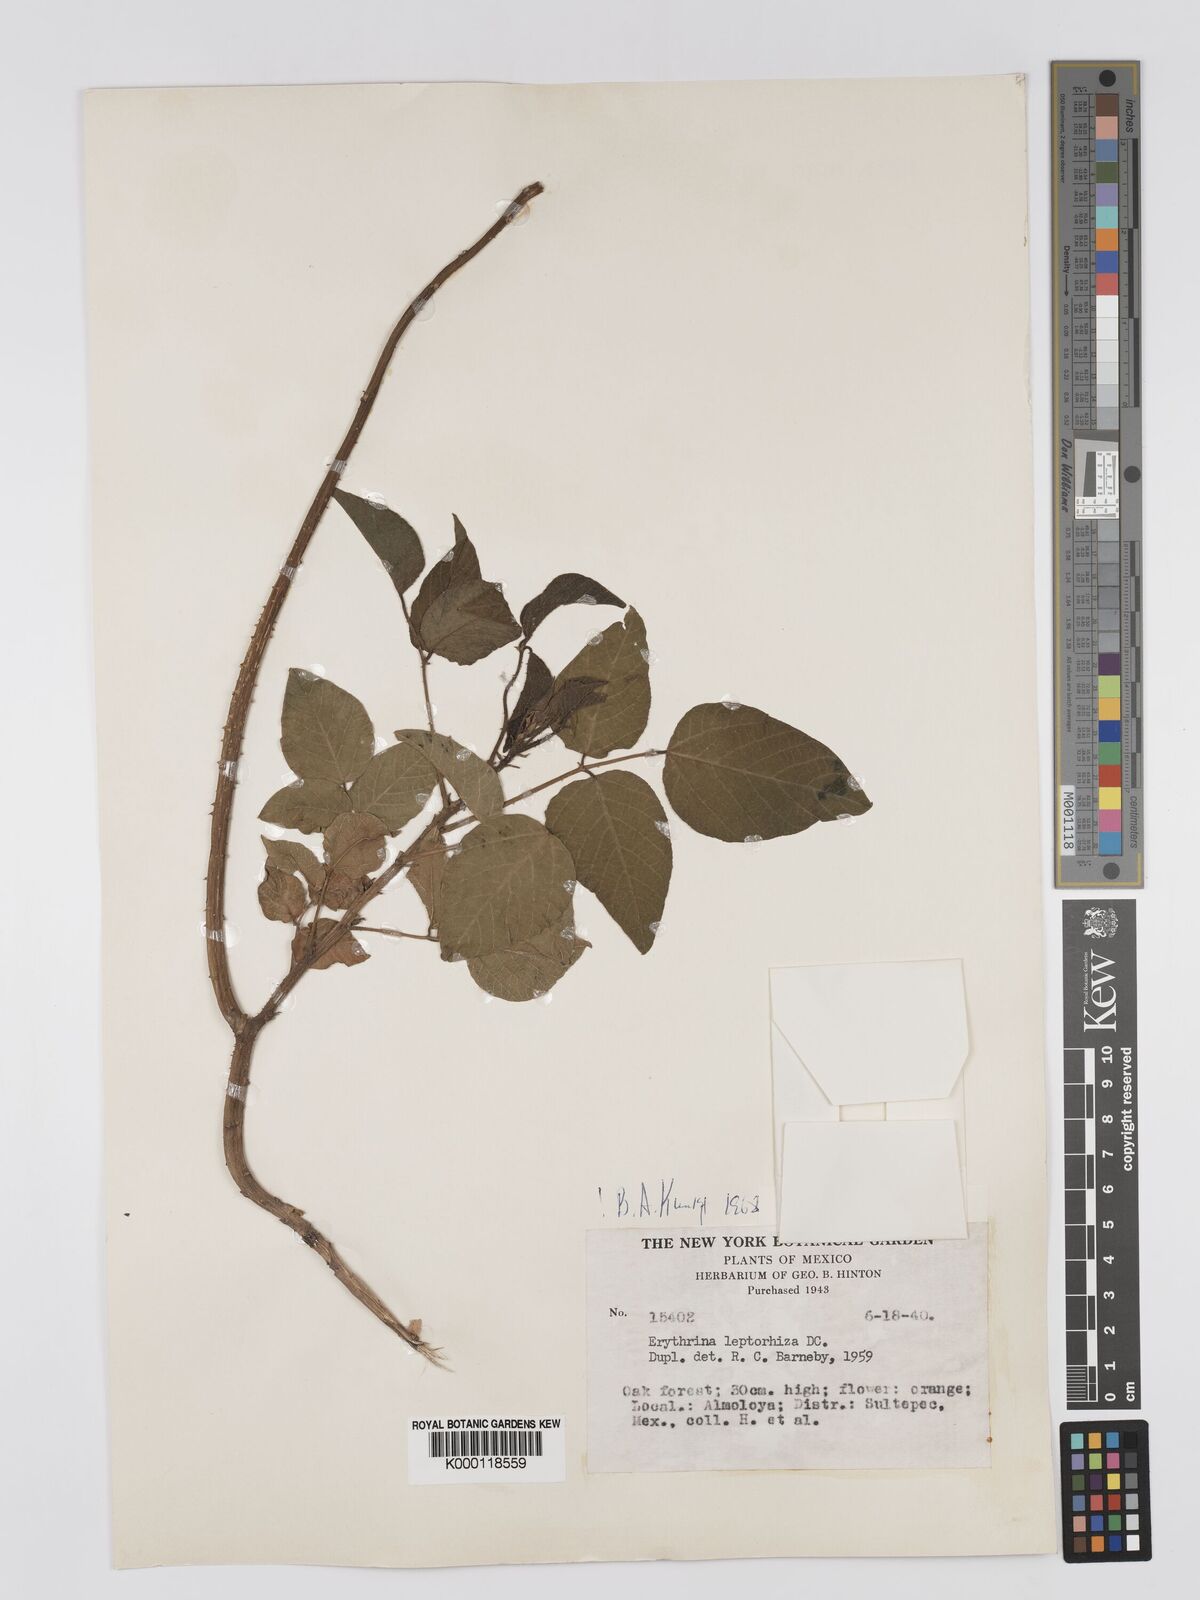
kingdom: Plantae
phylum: Tracheophyta
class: Magnoliopsida
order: Fabales
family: Fabaceae
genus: Erythrina
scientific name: Erythrina leptorhiza
